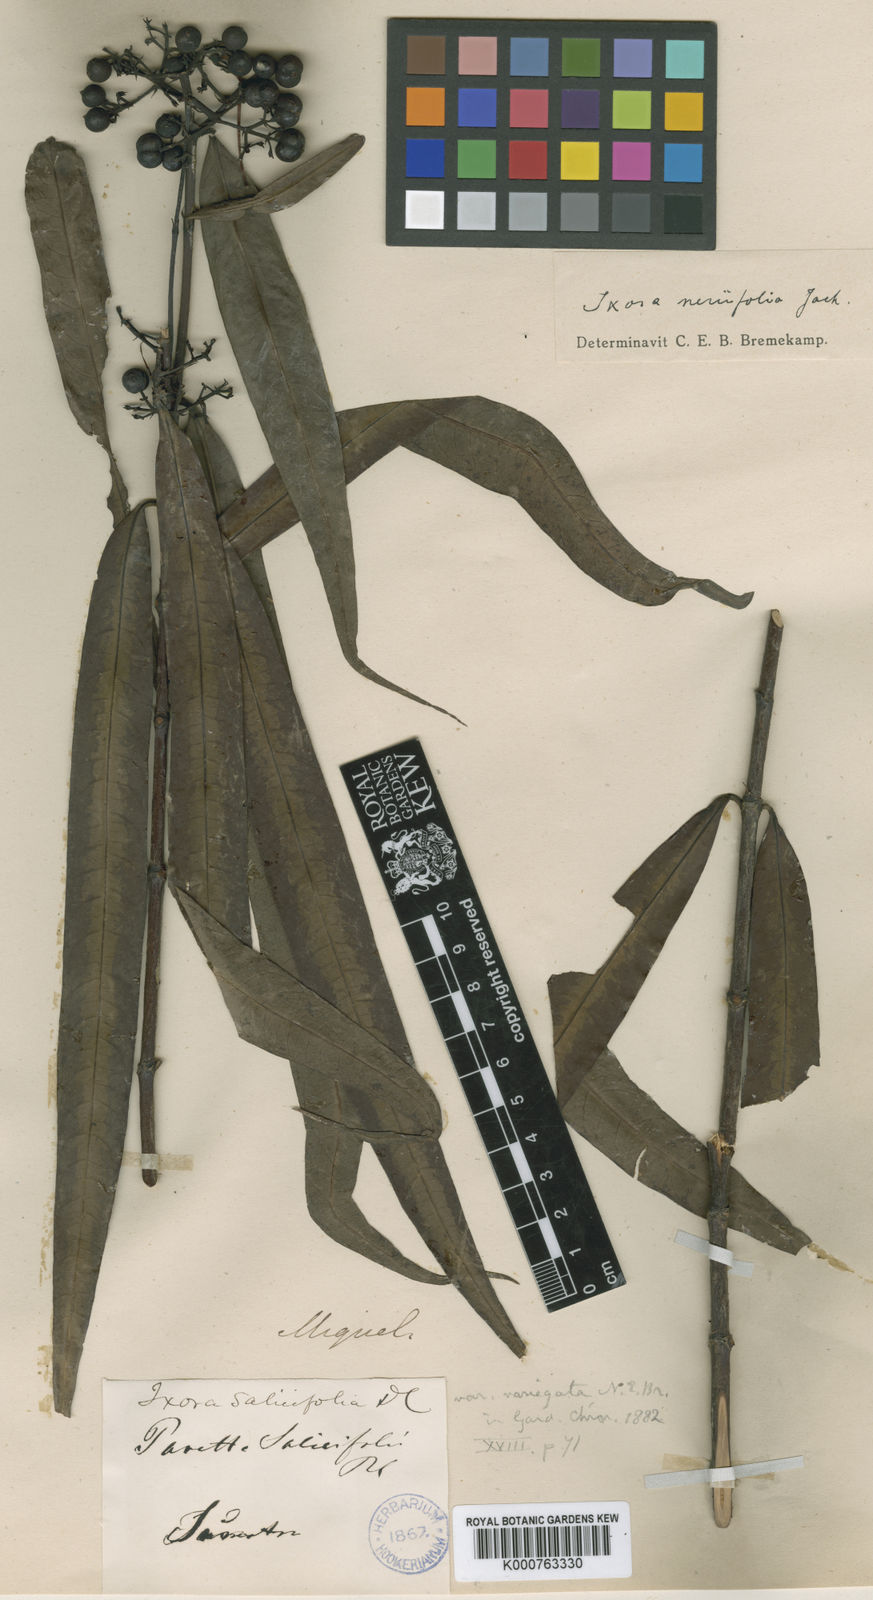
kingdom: Plantae
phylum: Tracheophyta
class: Magnoliopsida
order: Gentianales
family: Rubiaceae
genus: Ixora
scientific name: Ixora neriifolia
